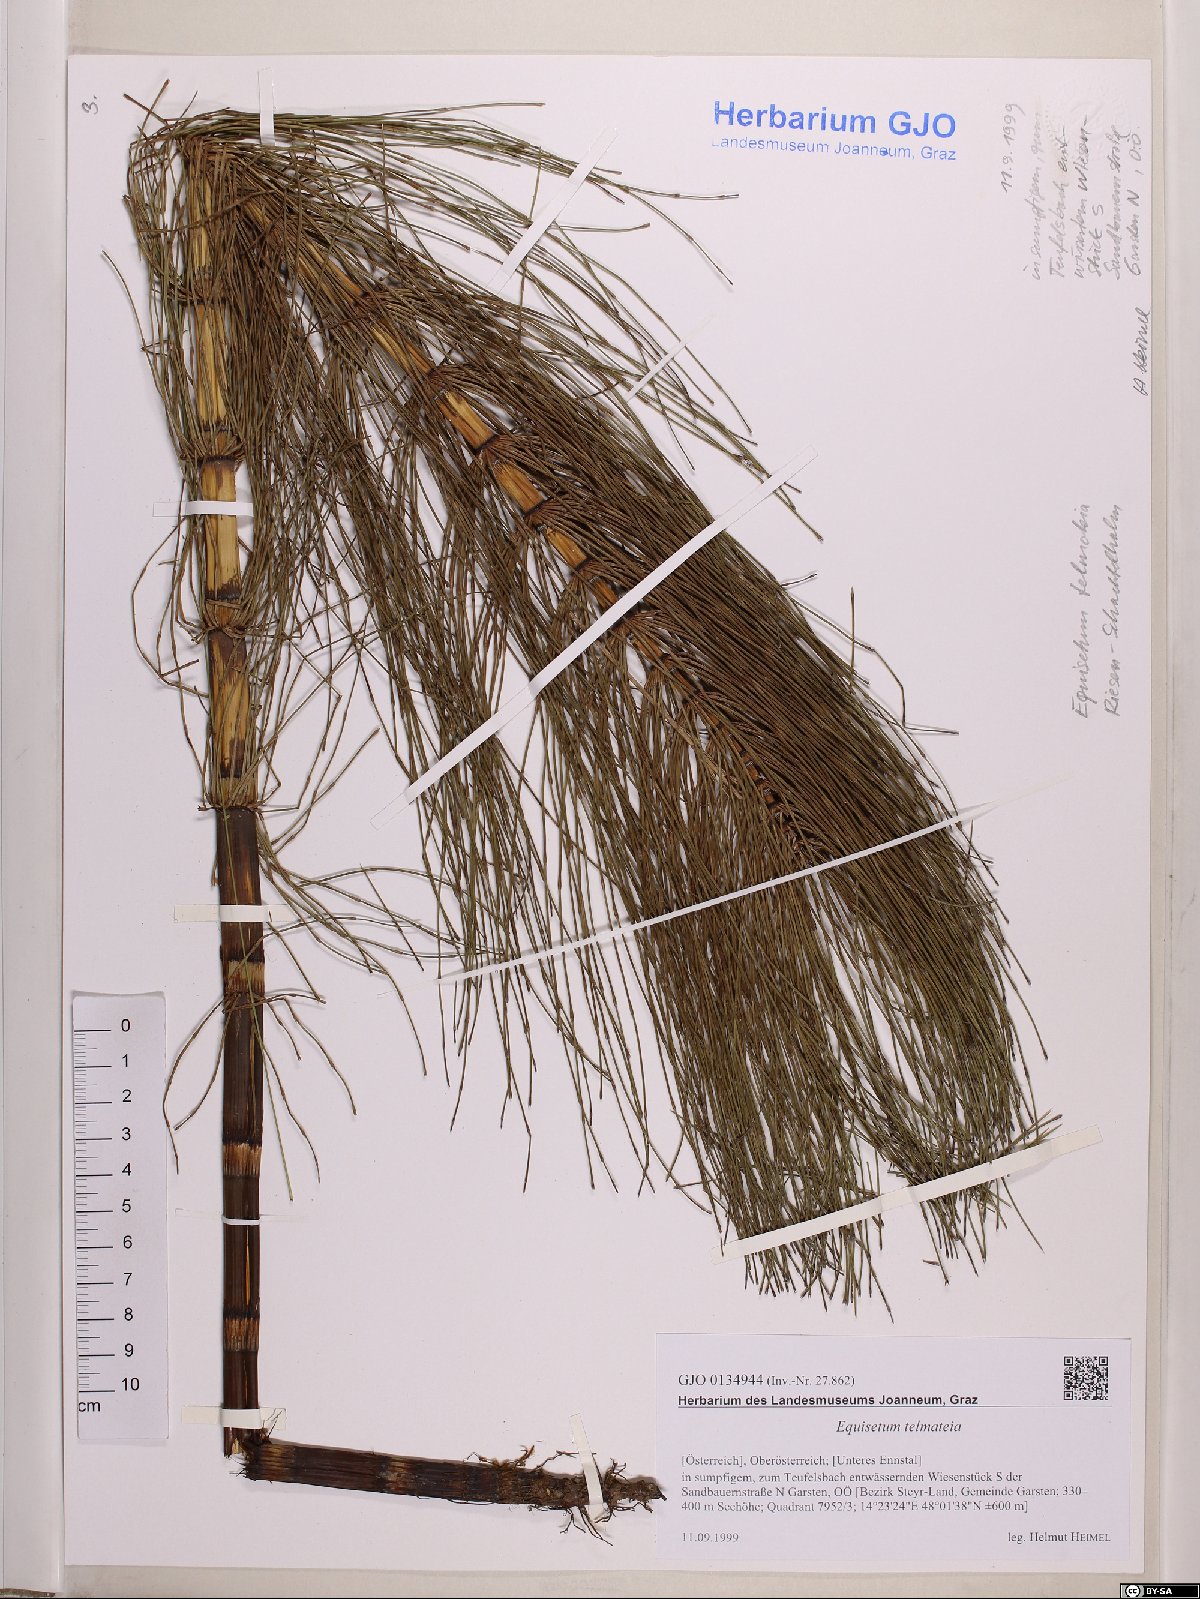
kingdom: Plantae
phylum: Tracheophyta
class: Polypodiopsida
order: Equisetales
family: Equisetaceae
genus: Equisetum
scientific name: Equisetum telmateia
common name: Great horsetail
